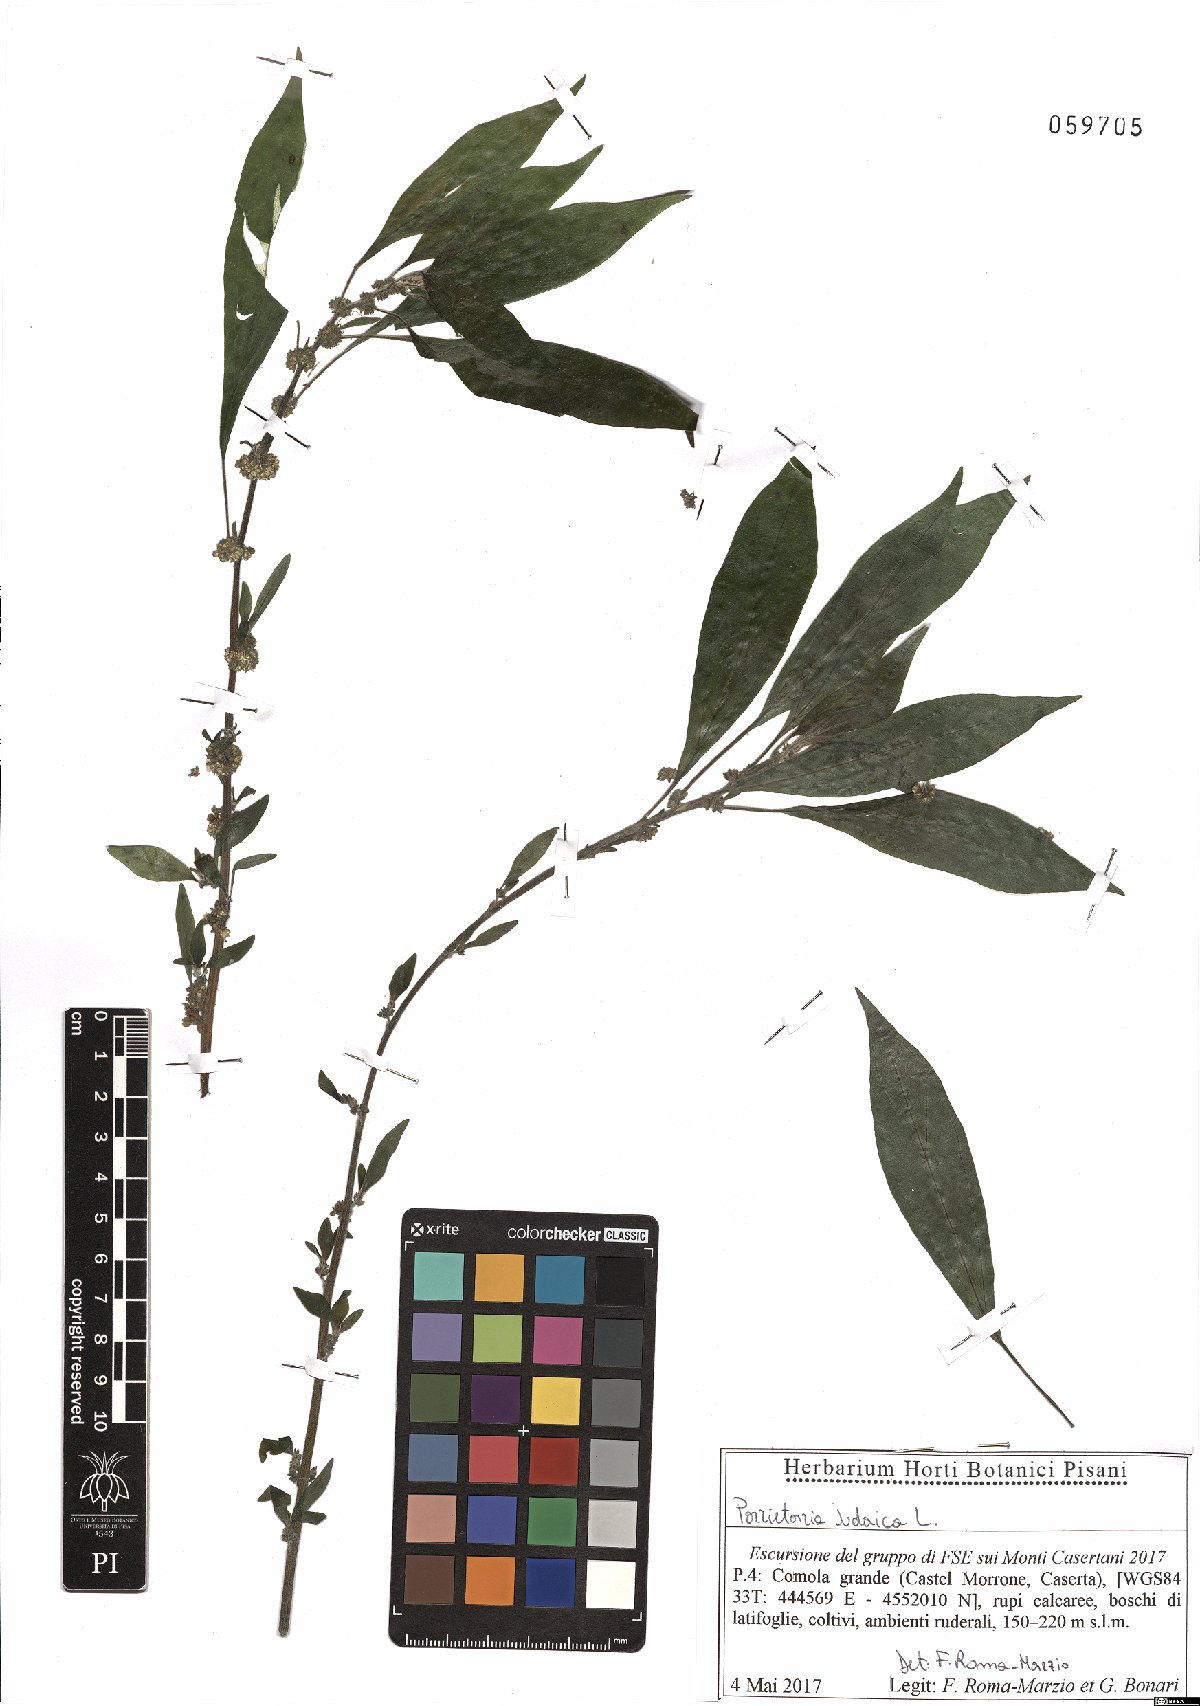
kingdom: Plantae
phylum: Tracheophyta
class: Magnoliopsida
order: Rosales
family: Urticaceae
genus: Parietaria
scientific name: Parietaria judaica
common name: Pellitory-of-the-wall
